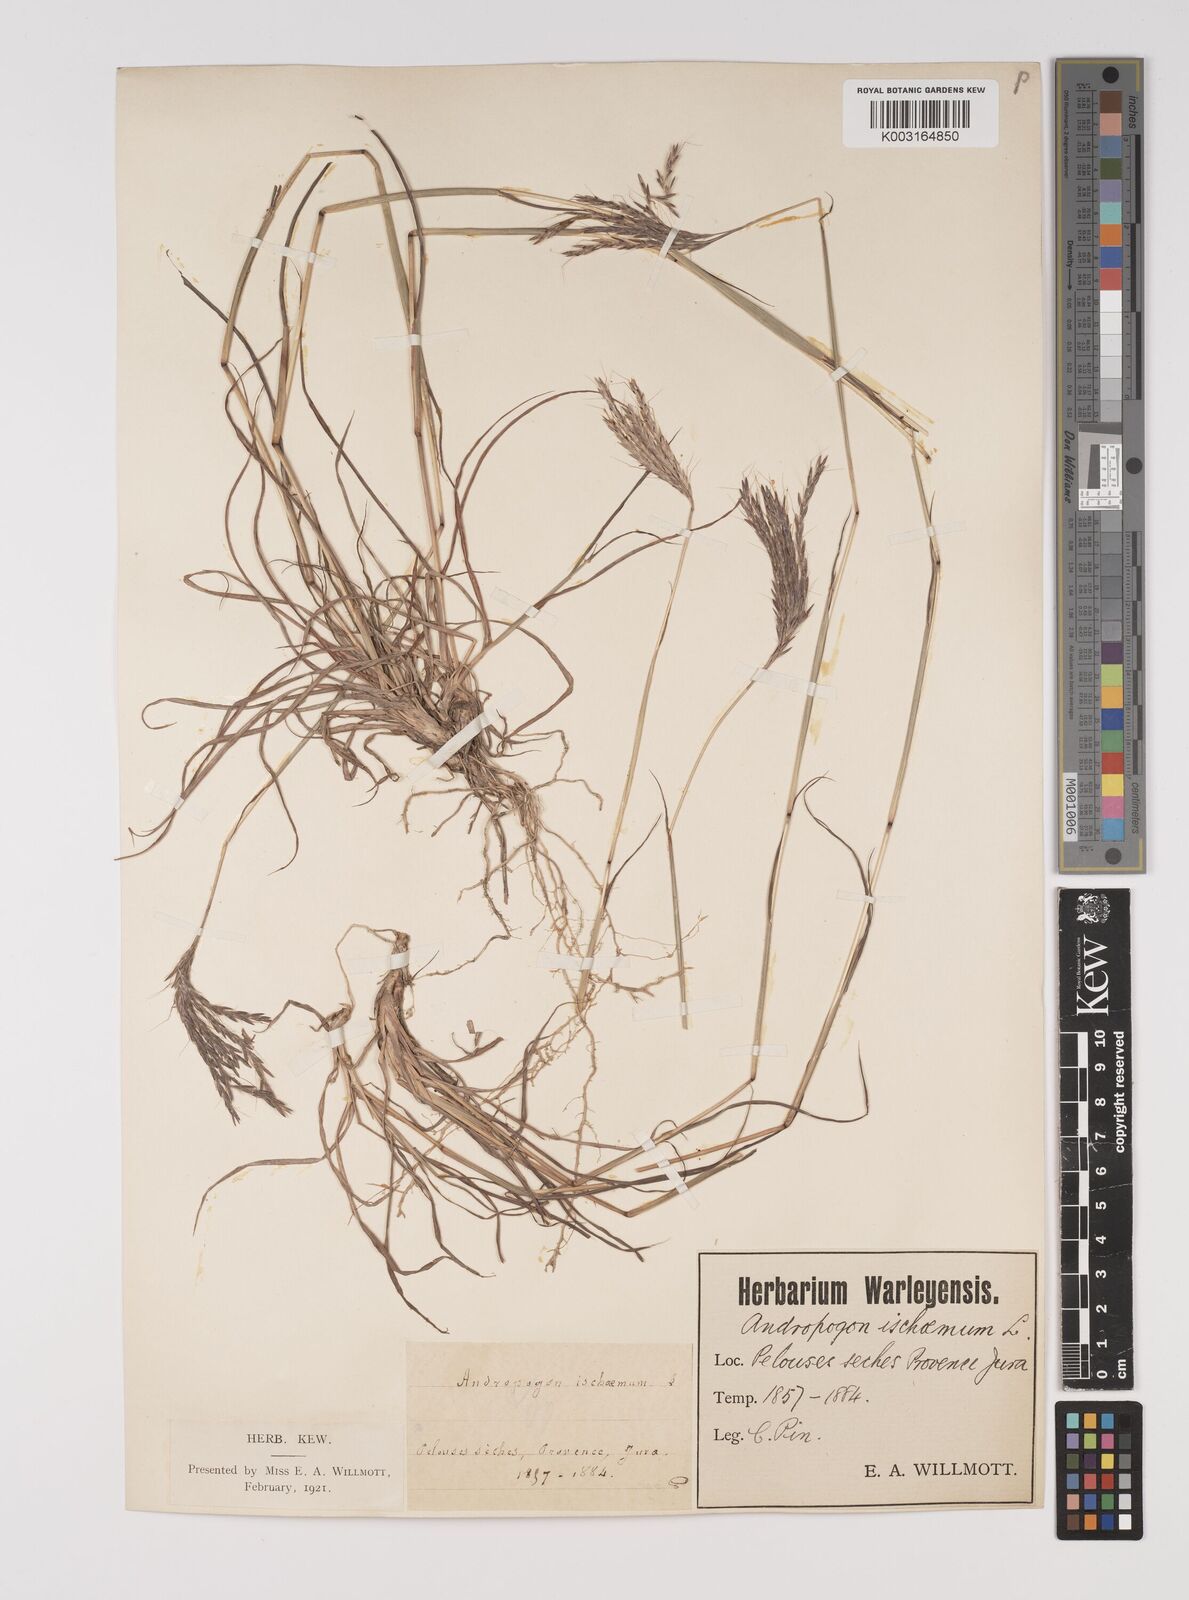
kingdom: Plantae
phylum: Tracheophyta
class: Liliopsida
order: Poales
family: Poaceae
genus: Bothriochloa
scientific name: Bothriochloa ischaemum
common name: Yellow bluestem
